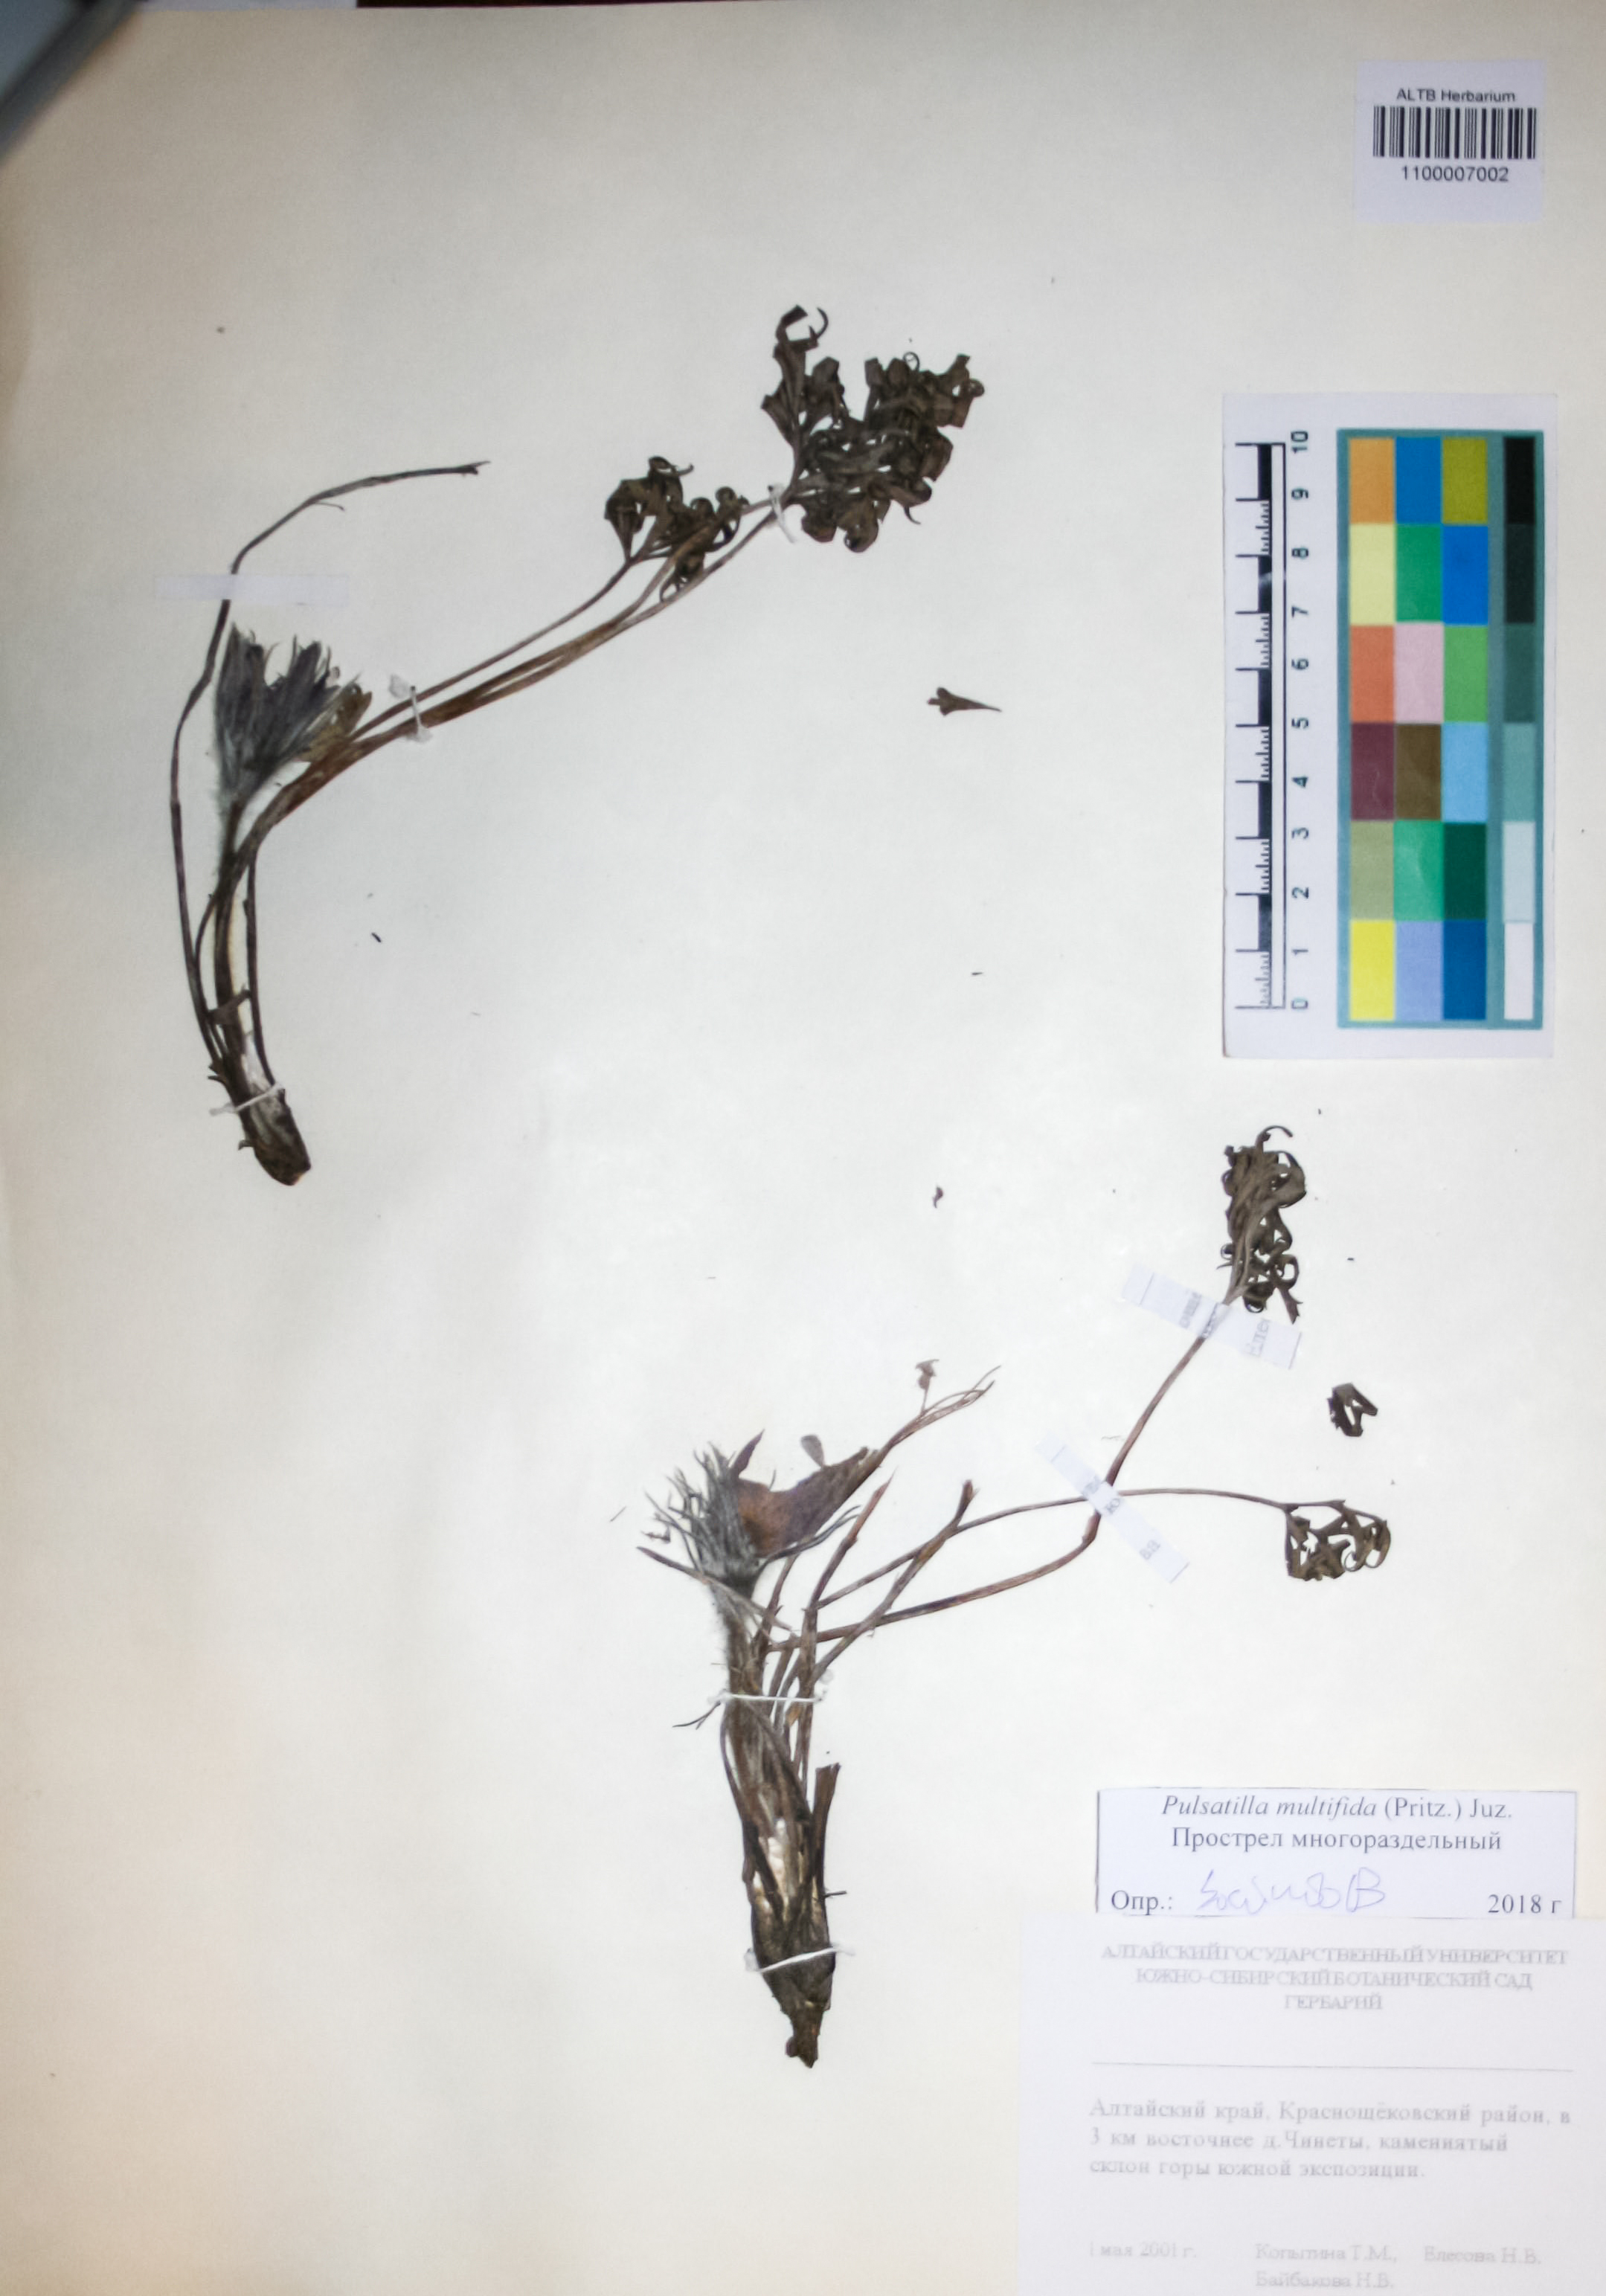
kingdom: Plantae
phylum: Tracheophyta
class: Magnoliopsida
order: Ranunculales
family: Ranunculaceae
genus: Pulsatilla
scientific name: Pulsatilla patens
